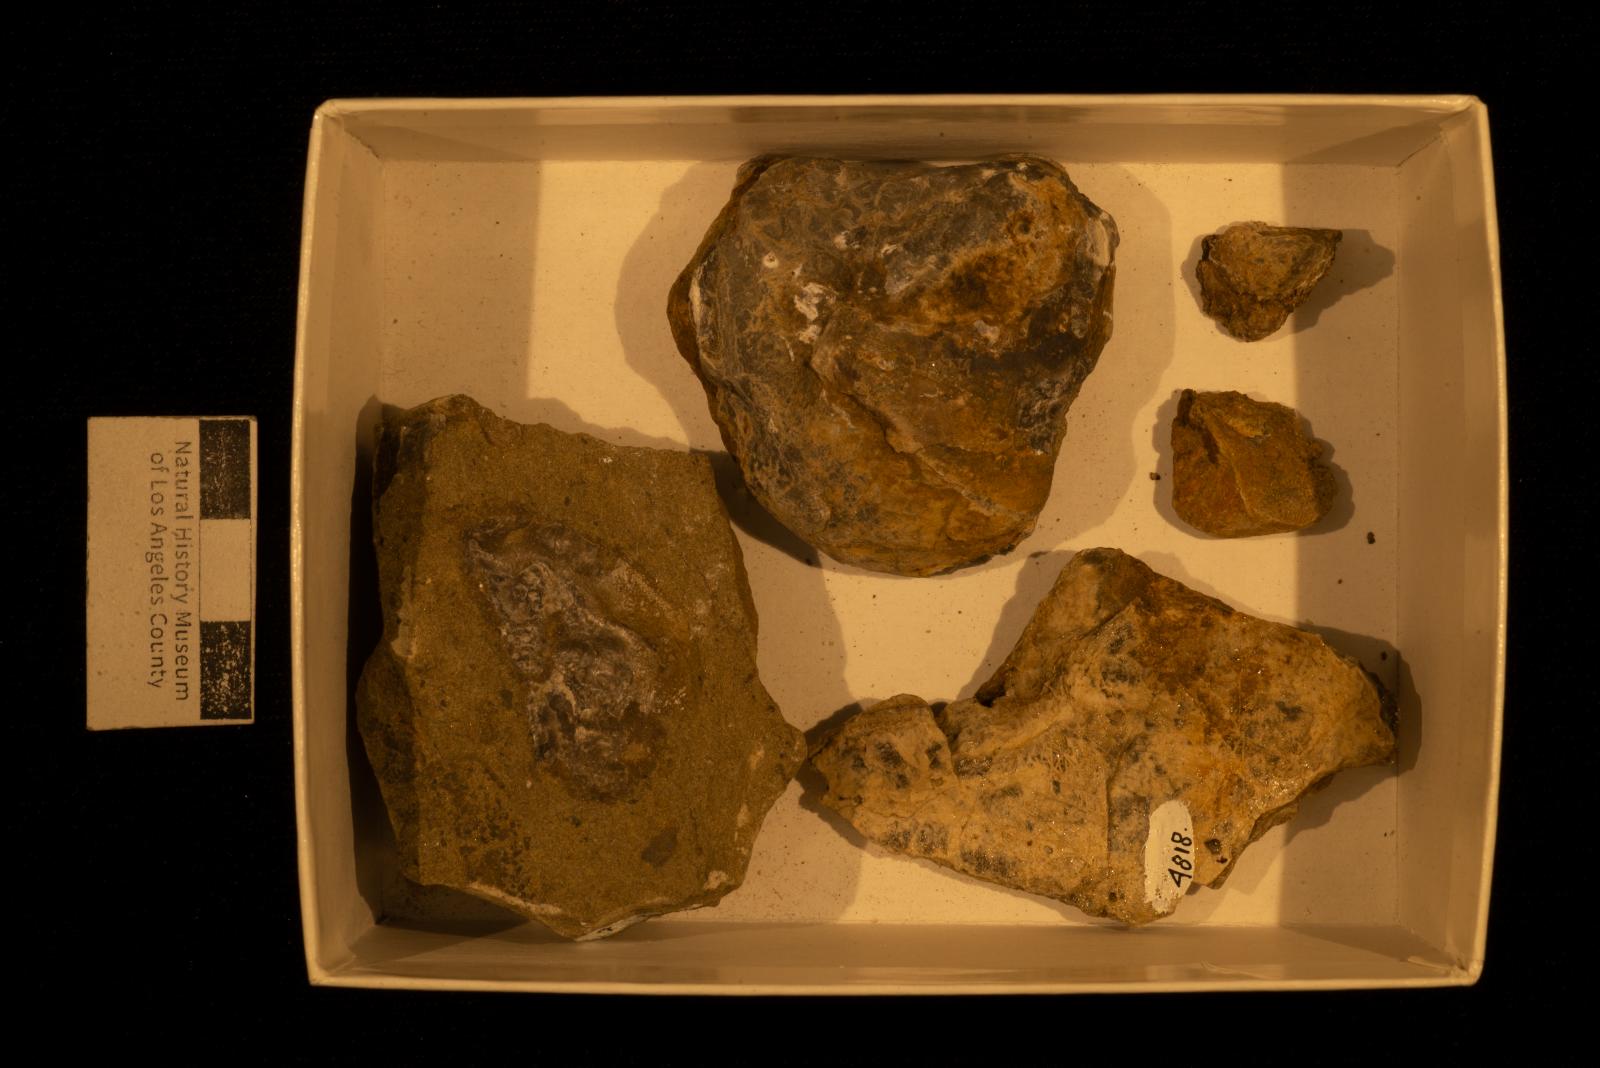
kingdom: Animalia
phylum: Mollusca
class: Bivalvia
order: Ostreida
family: Ostreidae
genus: Acutostrea
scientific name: Acutostrea
